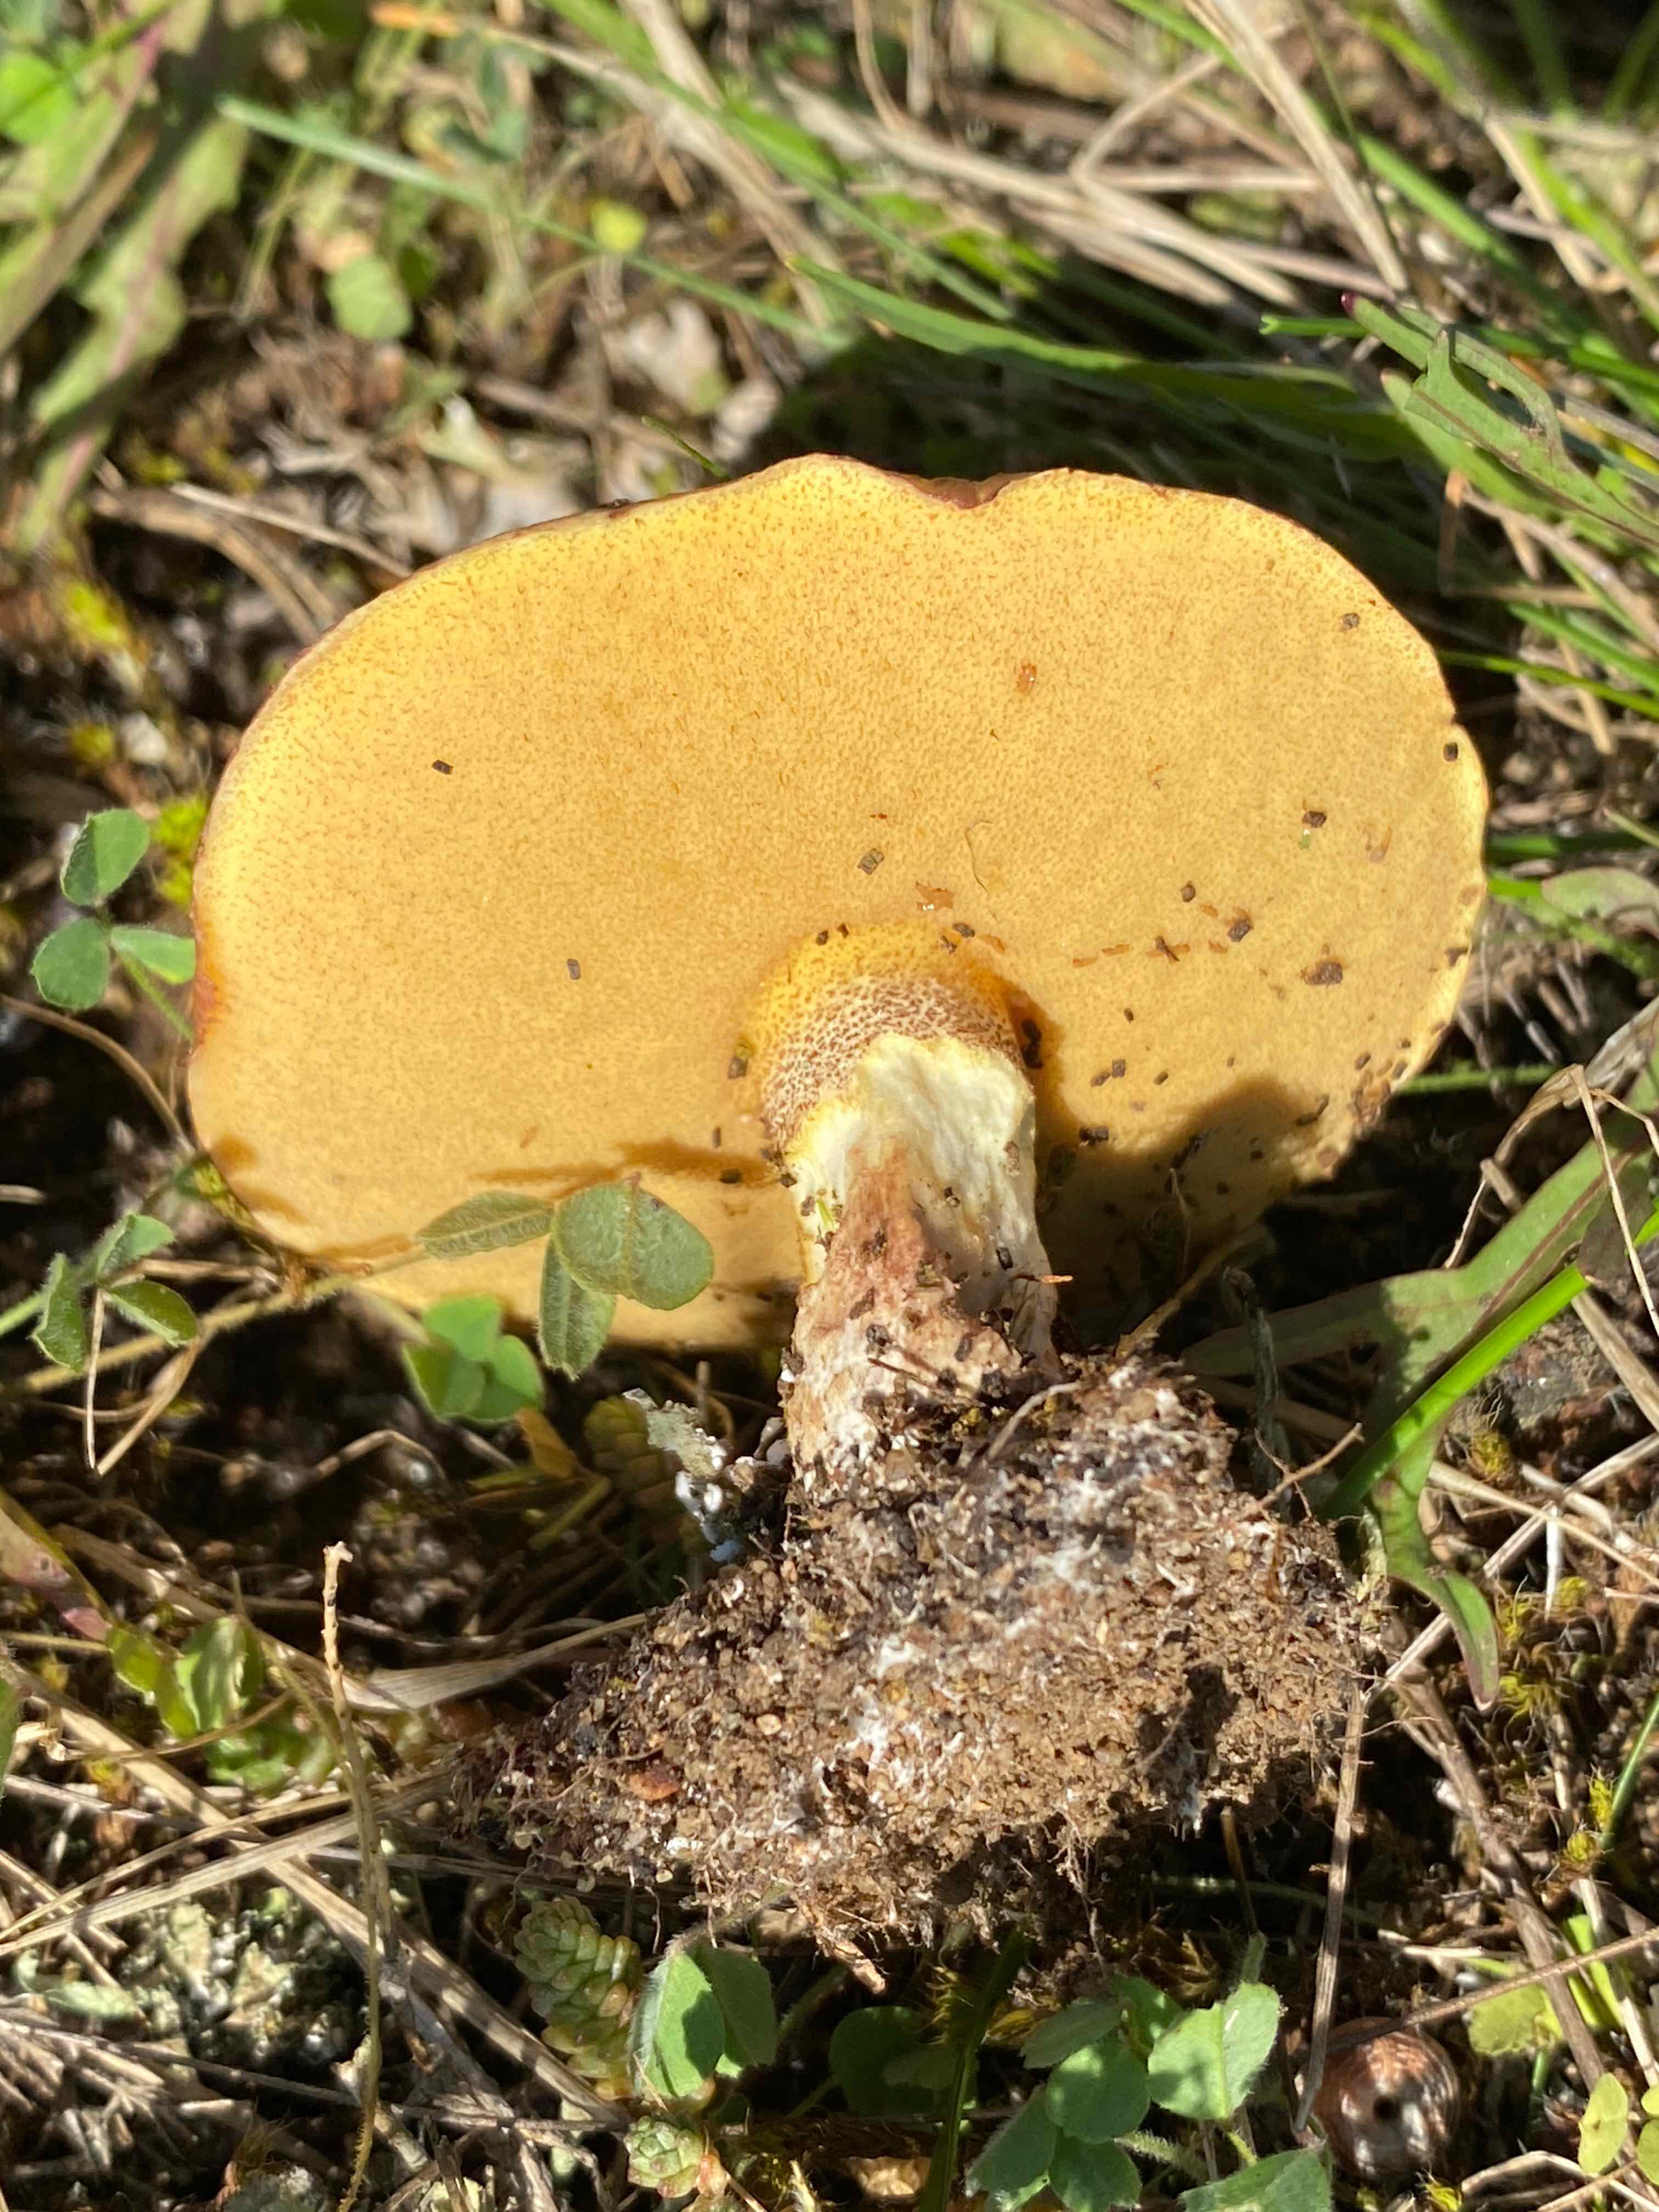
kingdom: Fungi
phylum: Basidiomycota
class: Agaricomycetes
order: Boletales
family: Suillaceae
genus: Suillus
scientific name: Suillus grevillei
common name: lærke-slimrørhat
